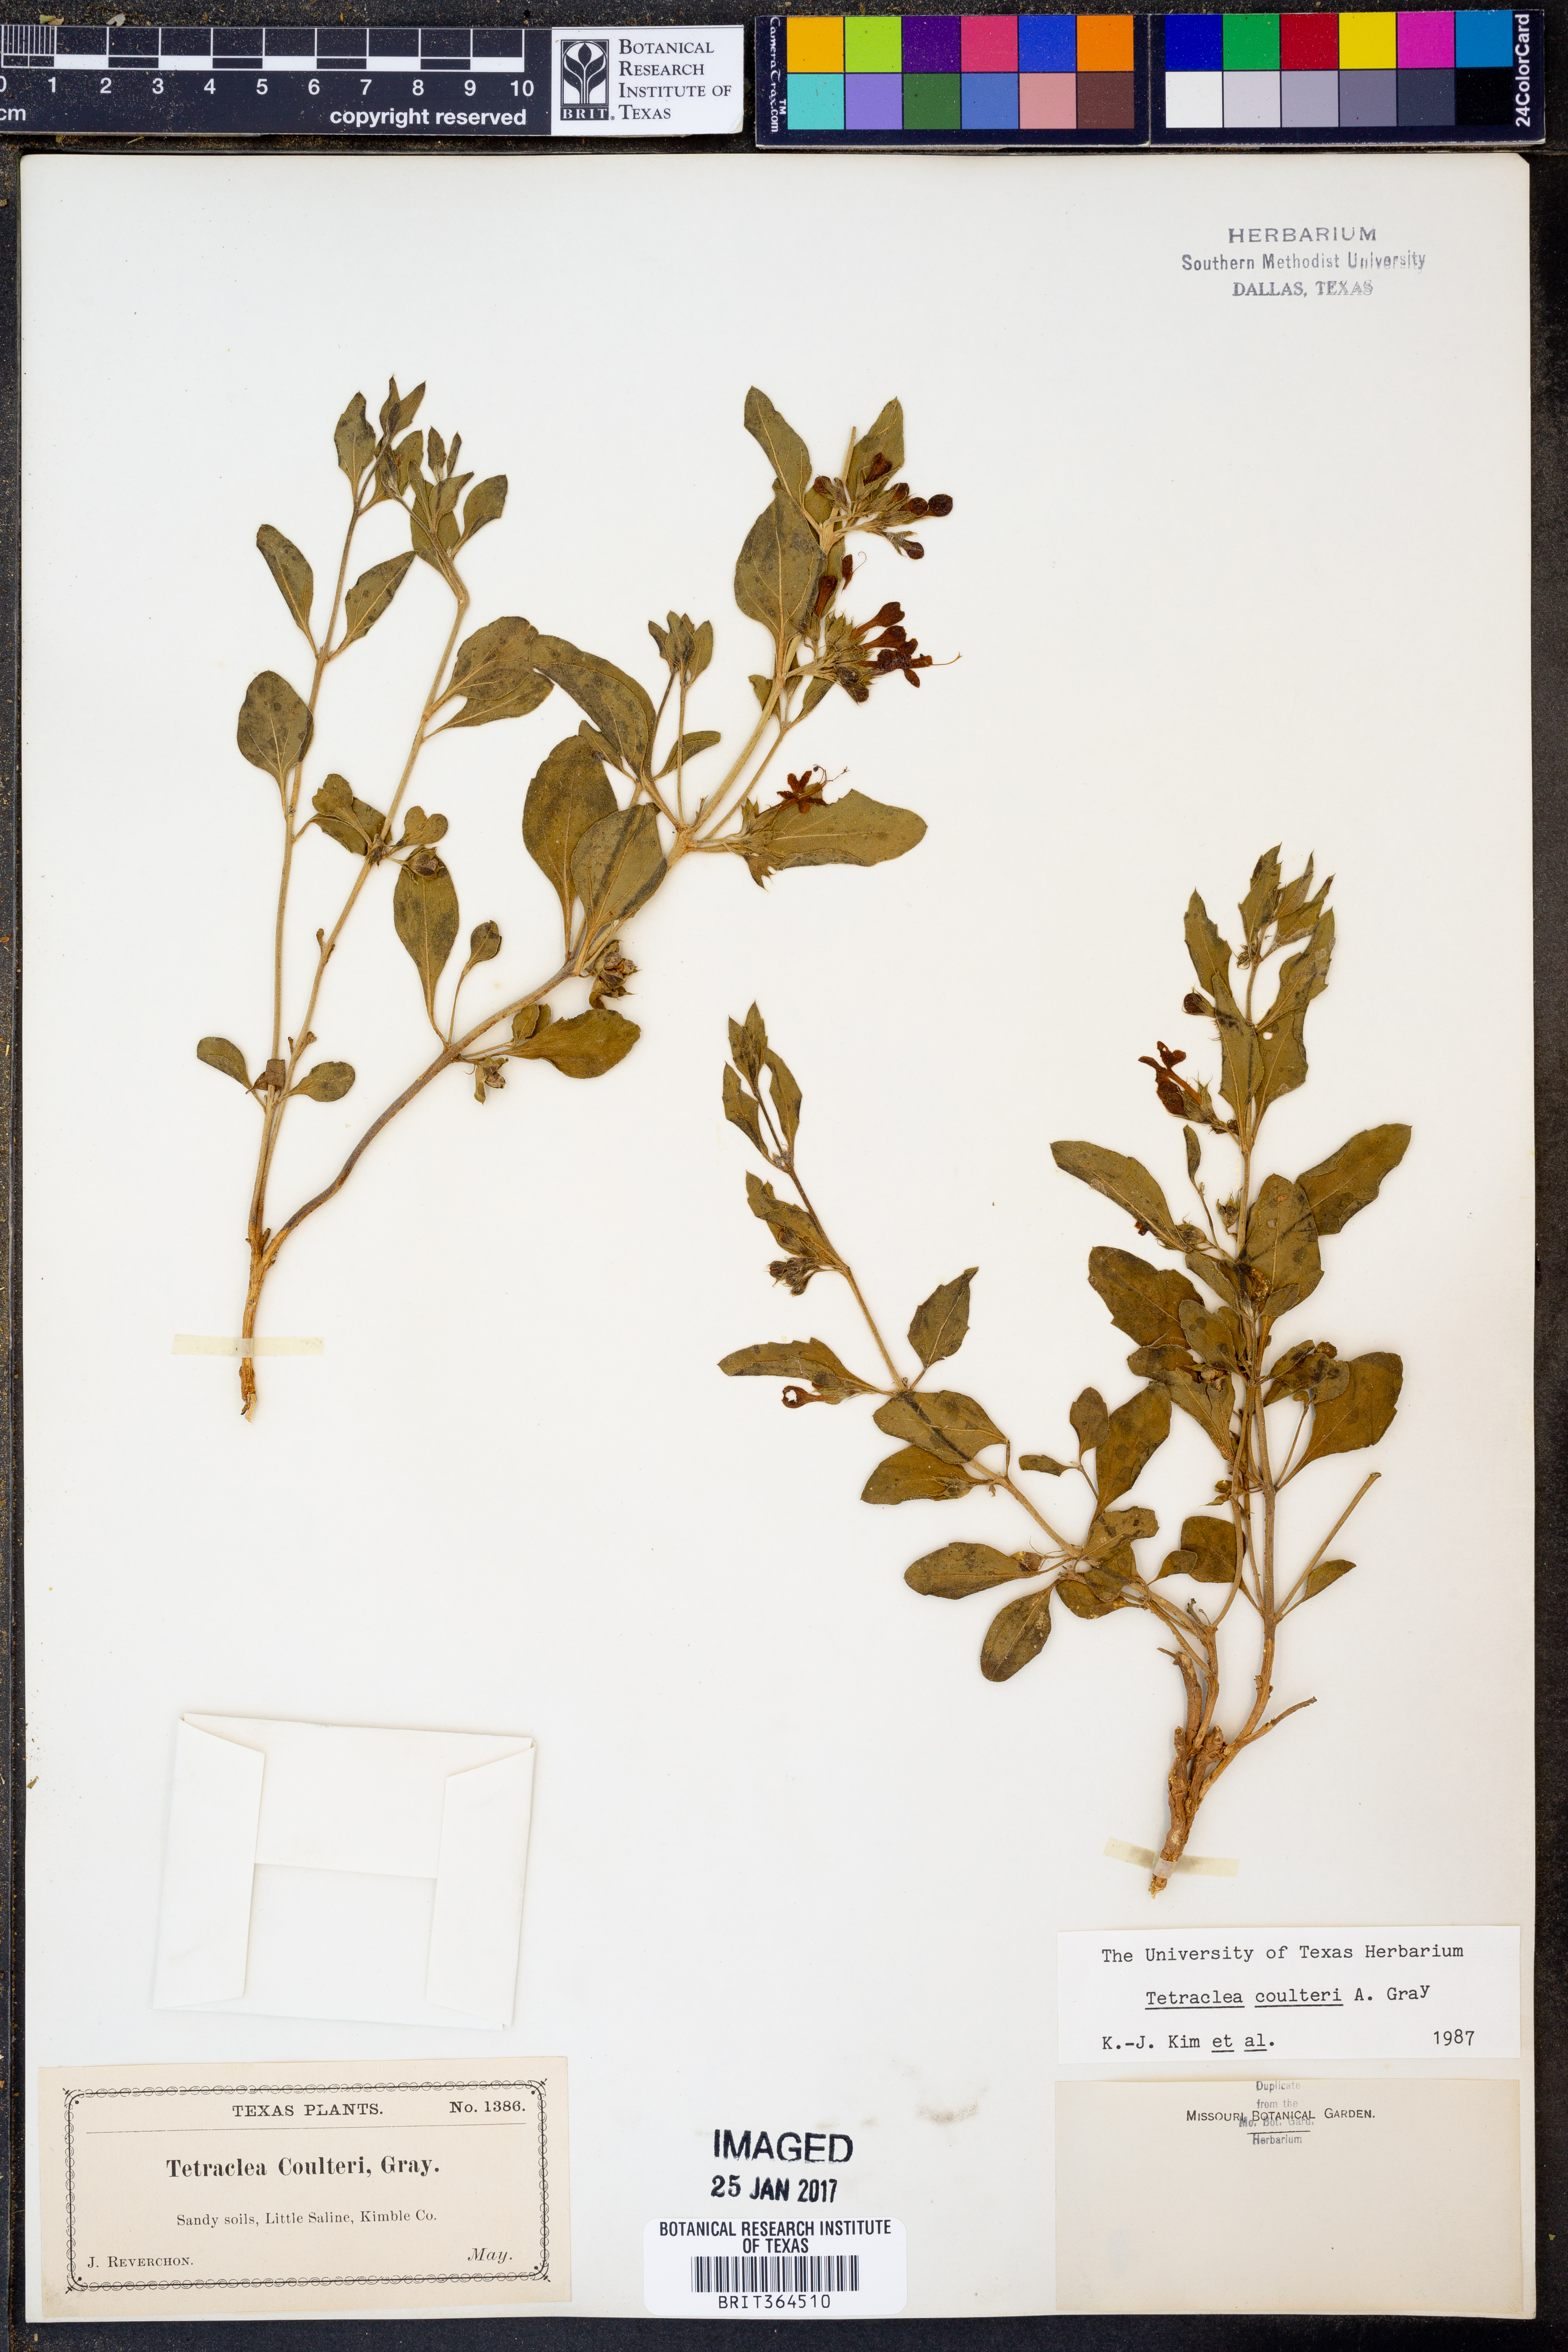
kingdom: Plantae
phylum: Tracheophyta
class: Magnoliopsida
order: Lamiales
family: Lamiaceae
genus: Tetraclea
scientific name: Tetraclea coulteri
